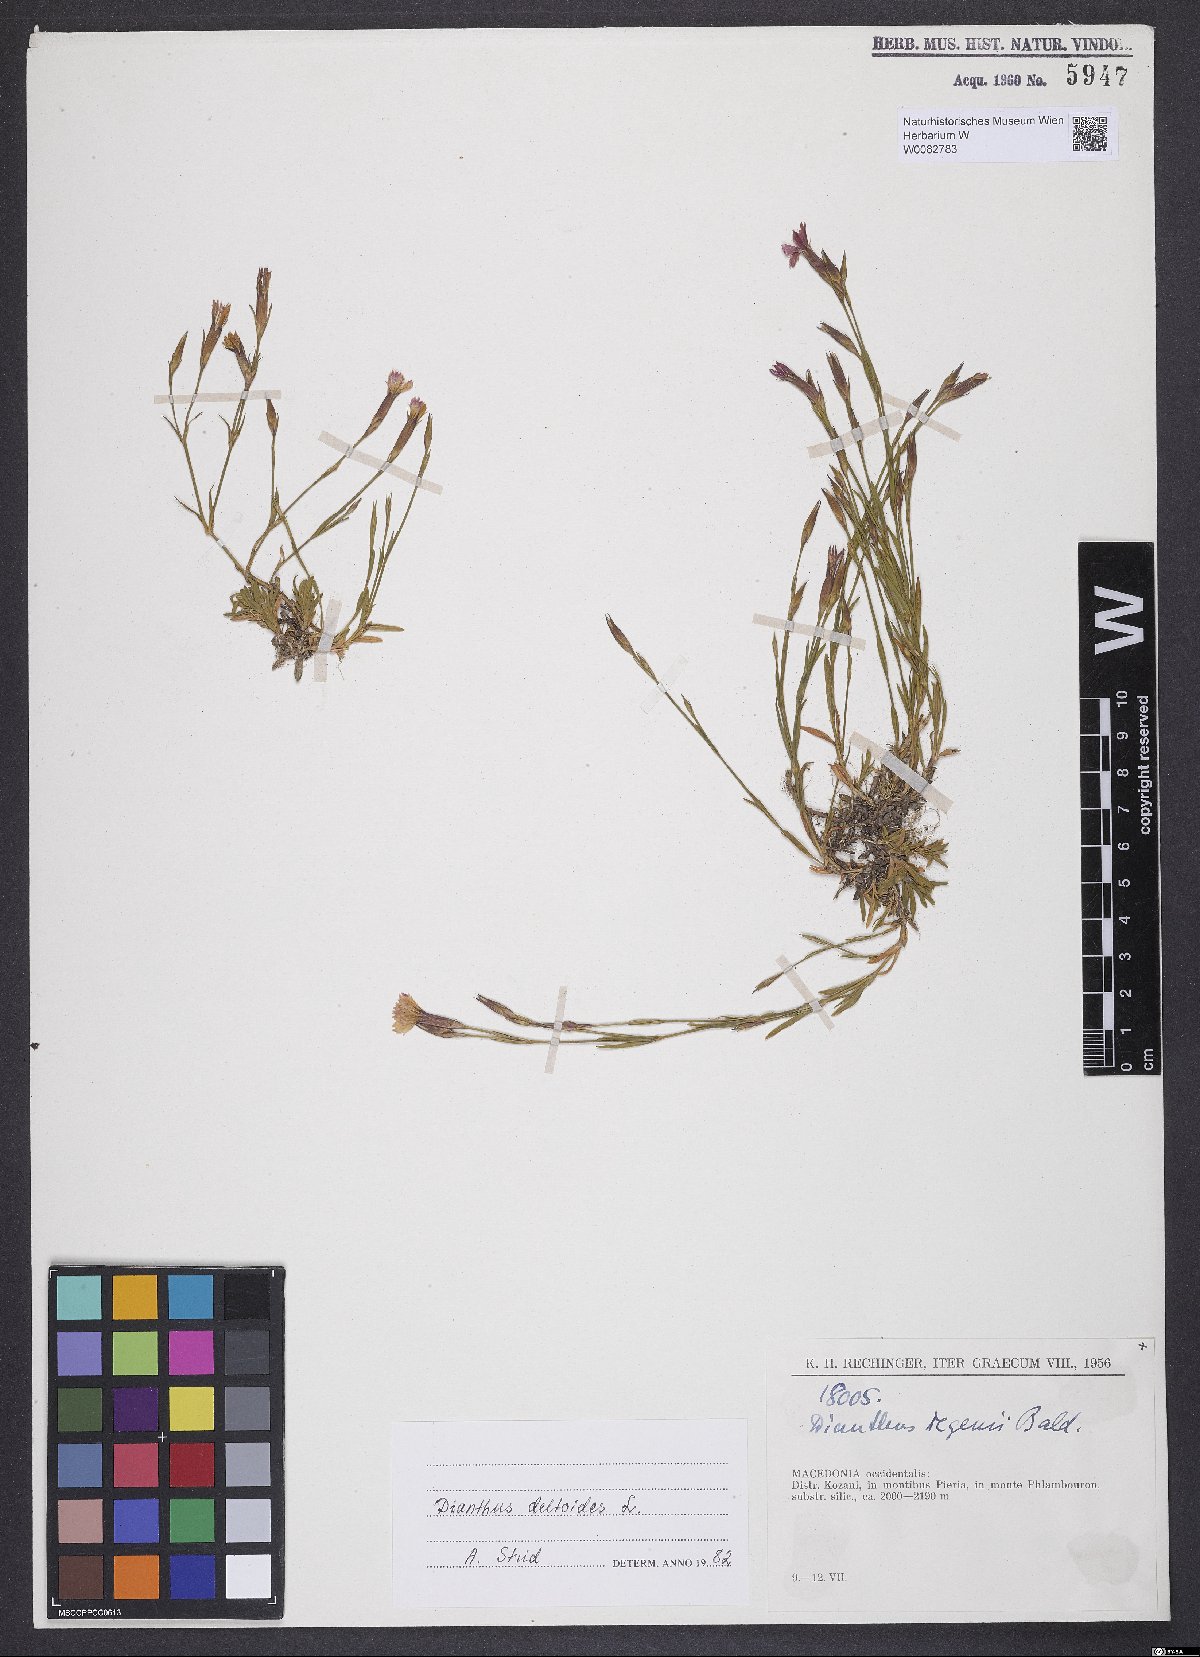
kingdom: Plantae
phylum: Tracheophyta
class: Magnoliopsida
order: Caryophyllales
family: Caryophyllaceae
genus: Dianthus
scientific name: Dianthus deltoides
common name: Maiden pink
